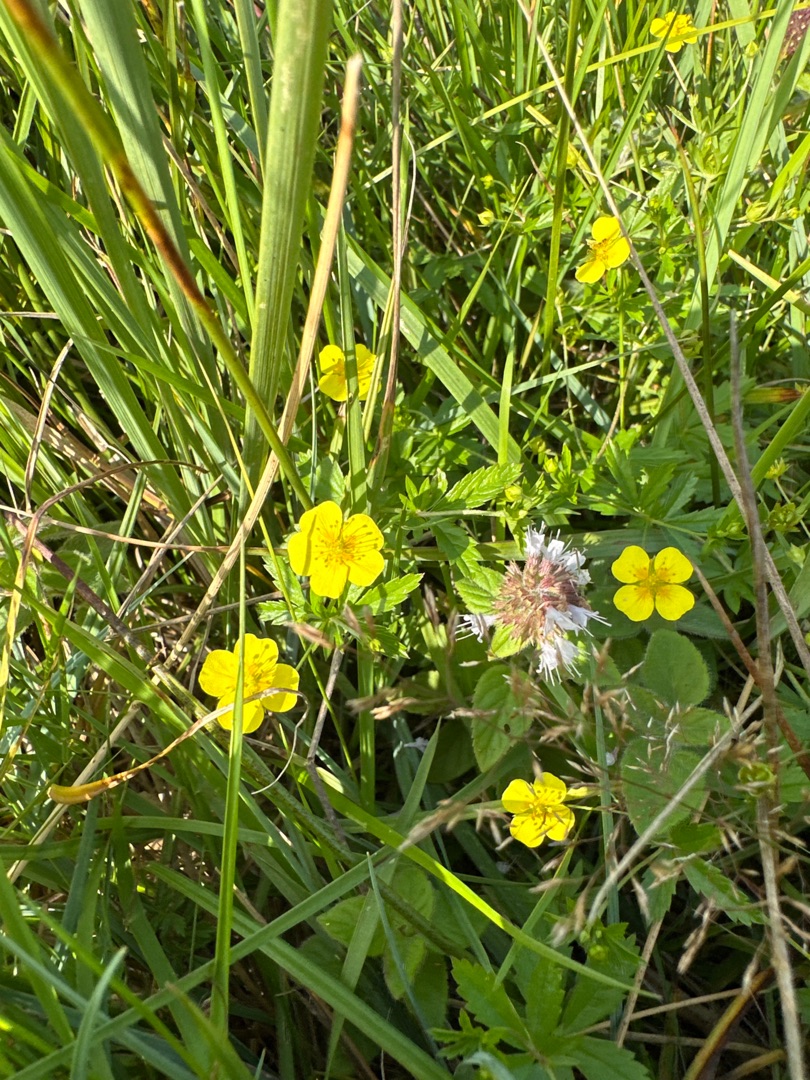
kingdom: Plantae
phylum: Tracheophyta
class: Magnoliopsida
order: Rosales
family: Rosaceae
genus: Potentilla
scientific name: Potentilla erecta
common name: Tormentil
